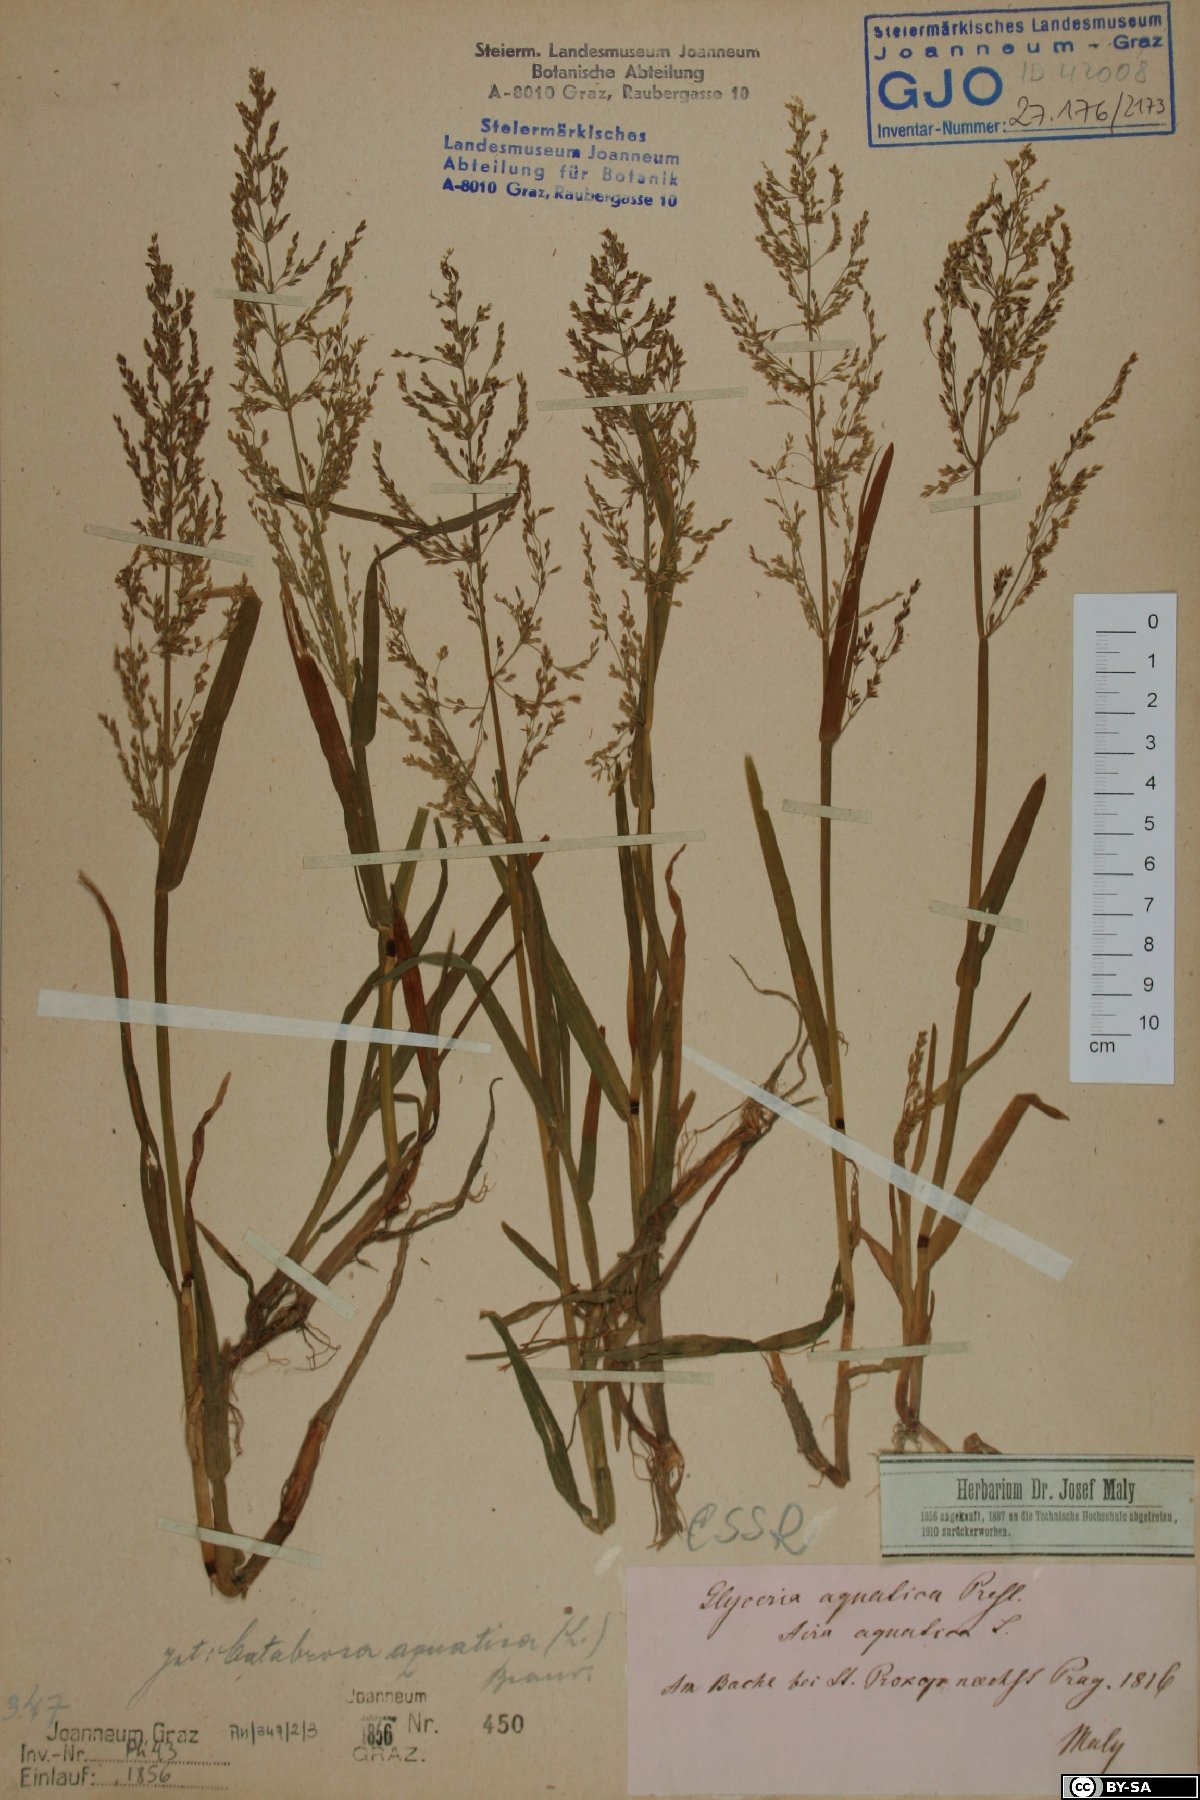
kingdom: Plantae
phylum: Tracheophyta
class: Liliopsida
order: Poales
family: Poaceae
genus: Catabrosa
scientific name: Catabrosa aquatica
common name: Whorl-grass
